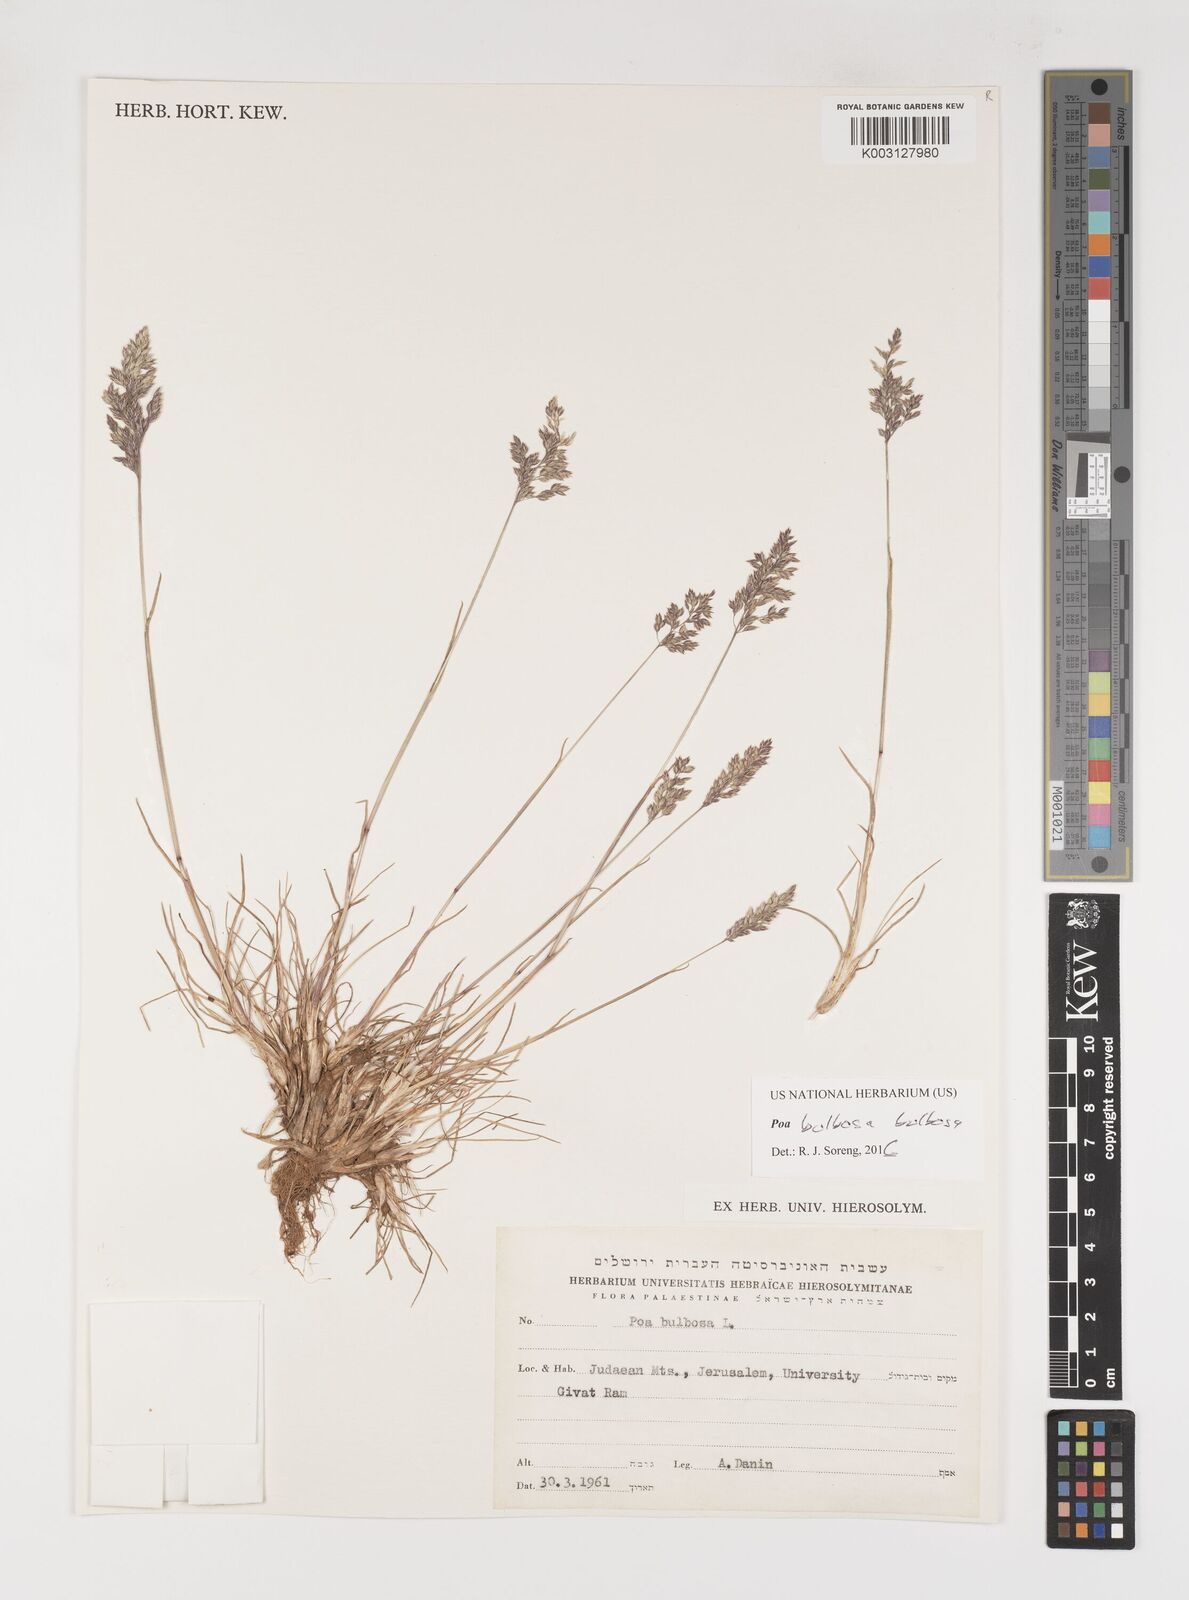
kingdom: Plantae
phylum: Tracheophyta
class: Liliopsida
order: Poales
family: Poaceae
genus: Poa
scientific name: Poa bulbosa
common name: Bulbous bluegrass
